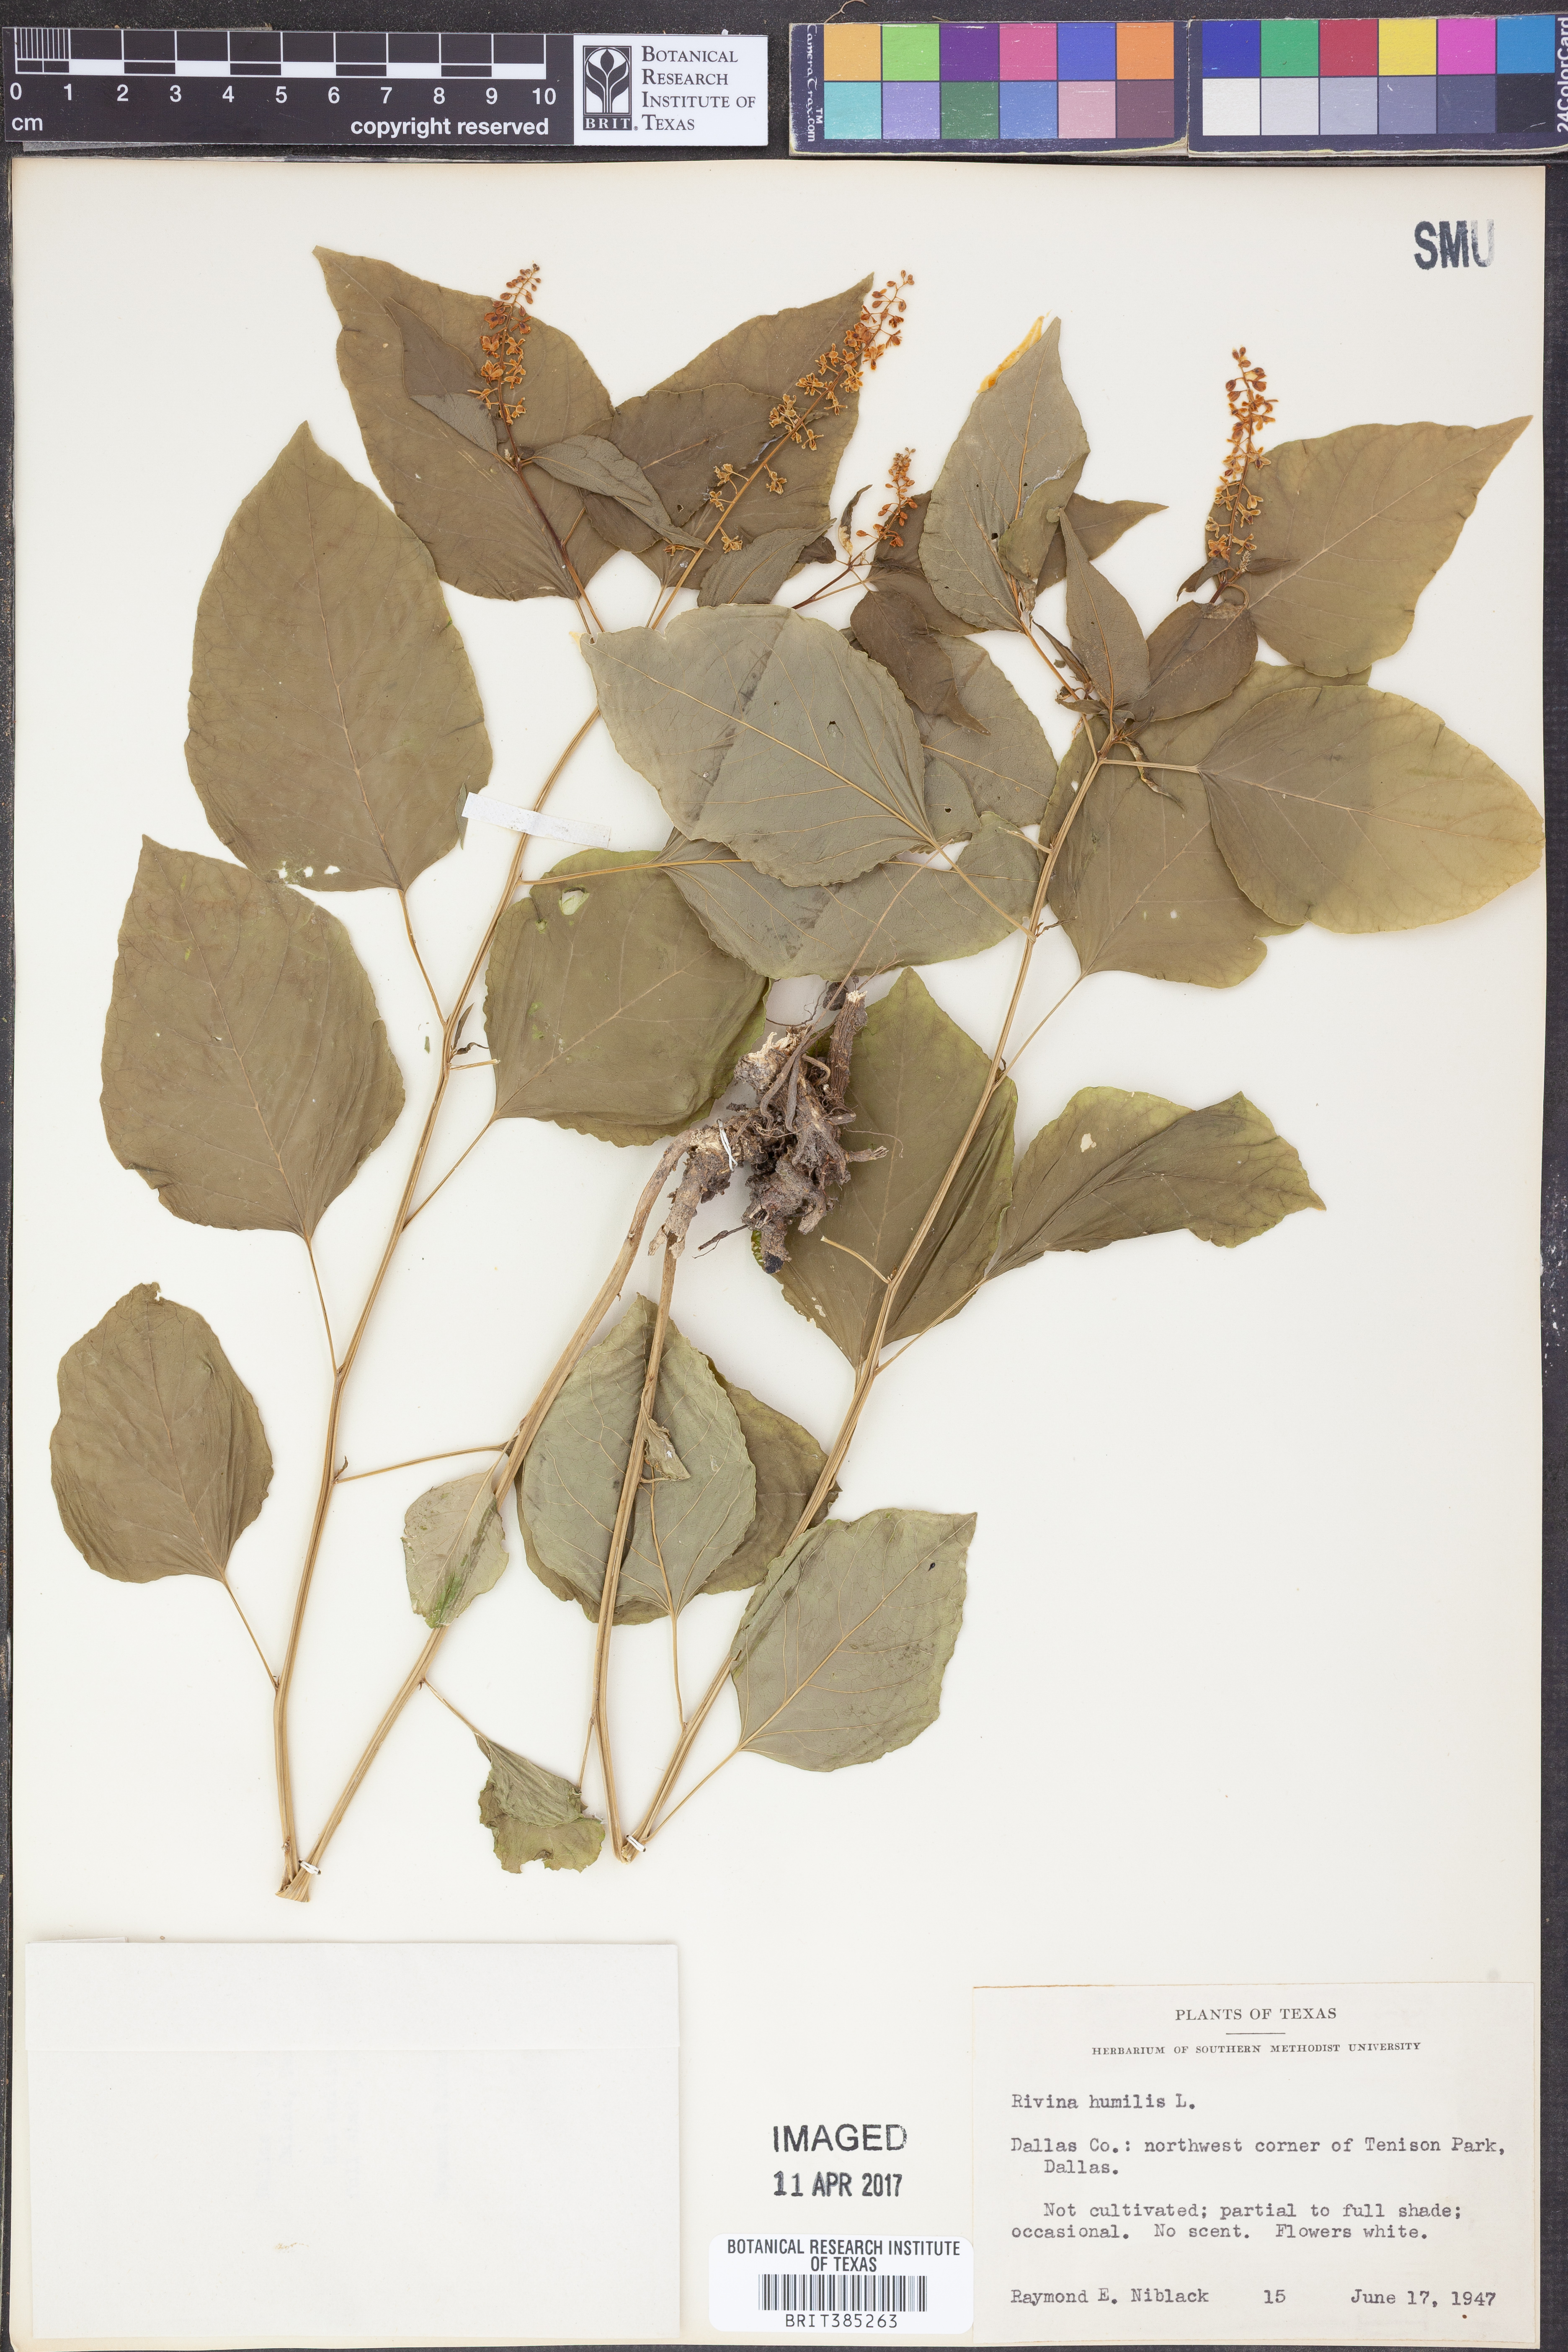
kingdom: Plantae
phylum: Tracheophyta
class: Magnoliopsida
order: Caryophyllales
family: Phytolaccaceae
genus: Rivina
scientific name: Rivina humilis
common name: Rougeplant
